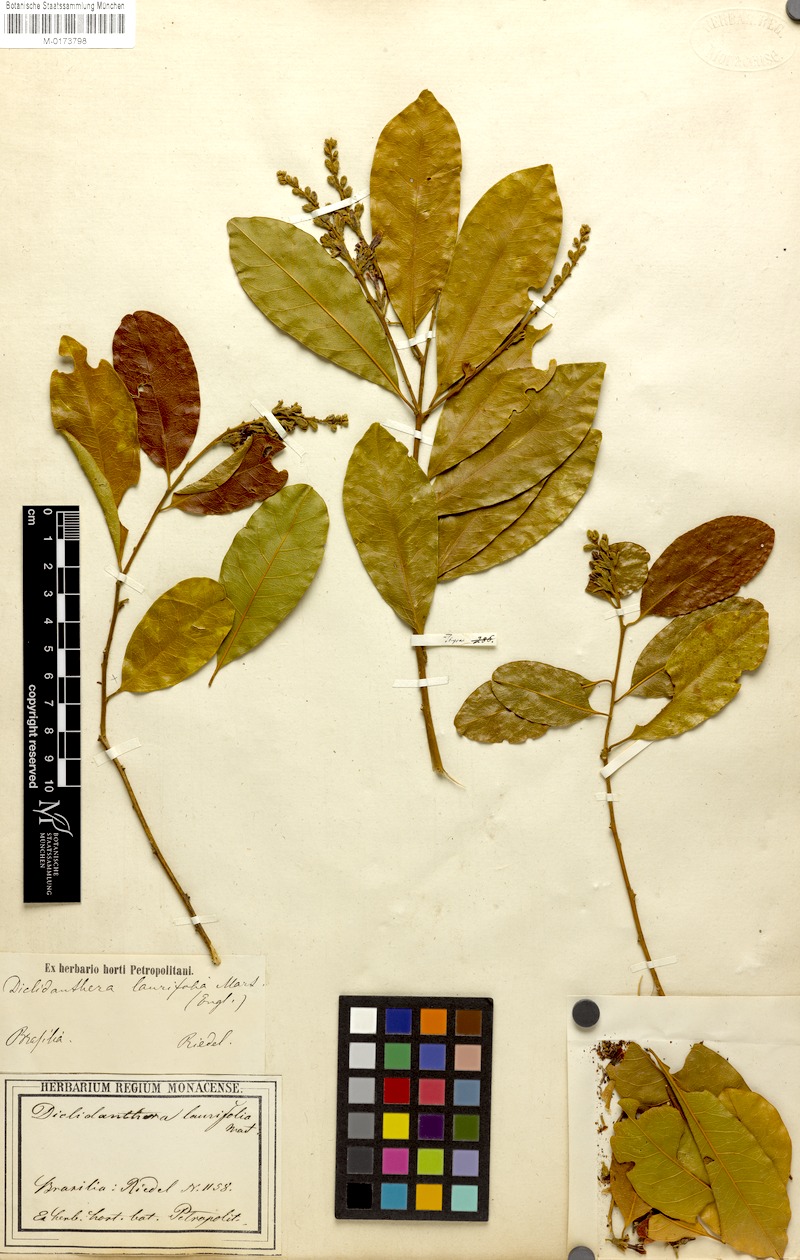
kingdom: Plantae
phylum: Tracheophyta
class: Magnoliopsida
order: Fabales
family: Polygalaceae
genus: Diclidanthera
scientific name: Diclidanthera laurifolia
